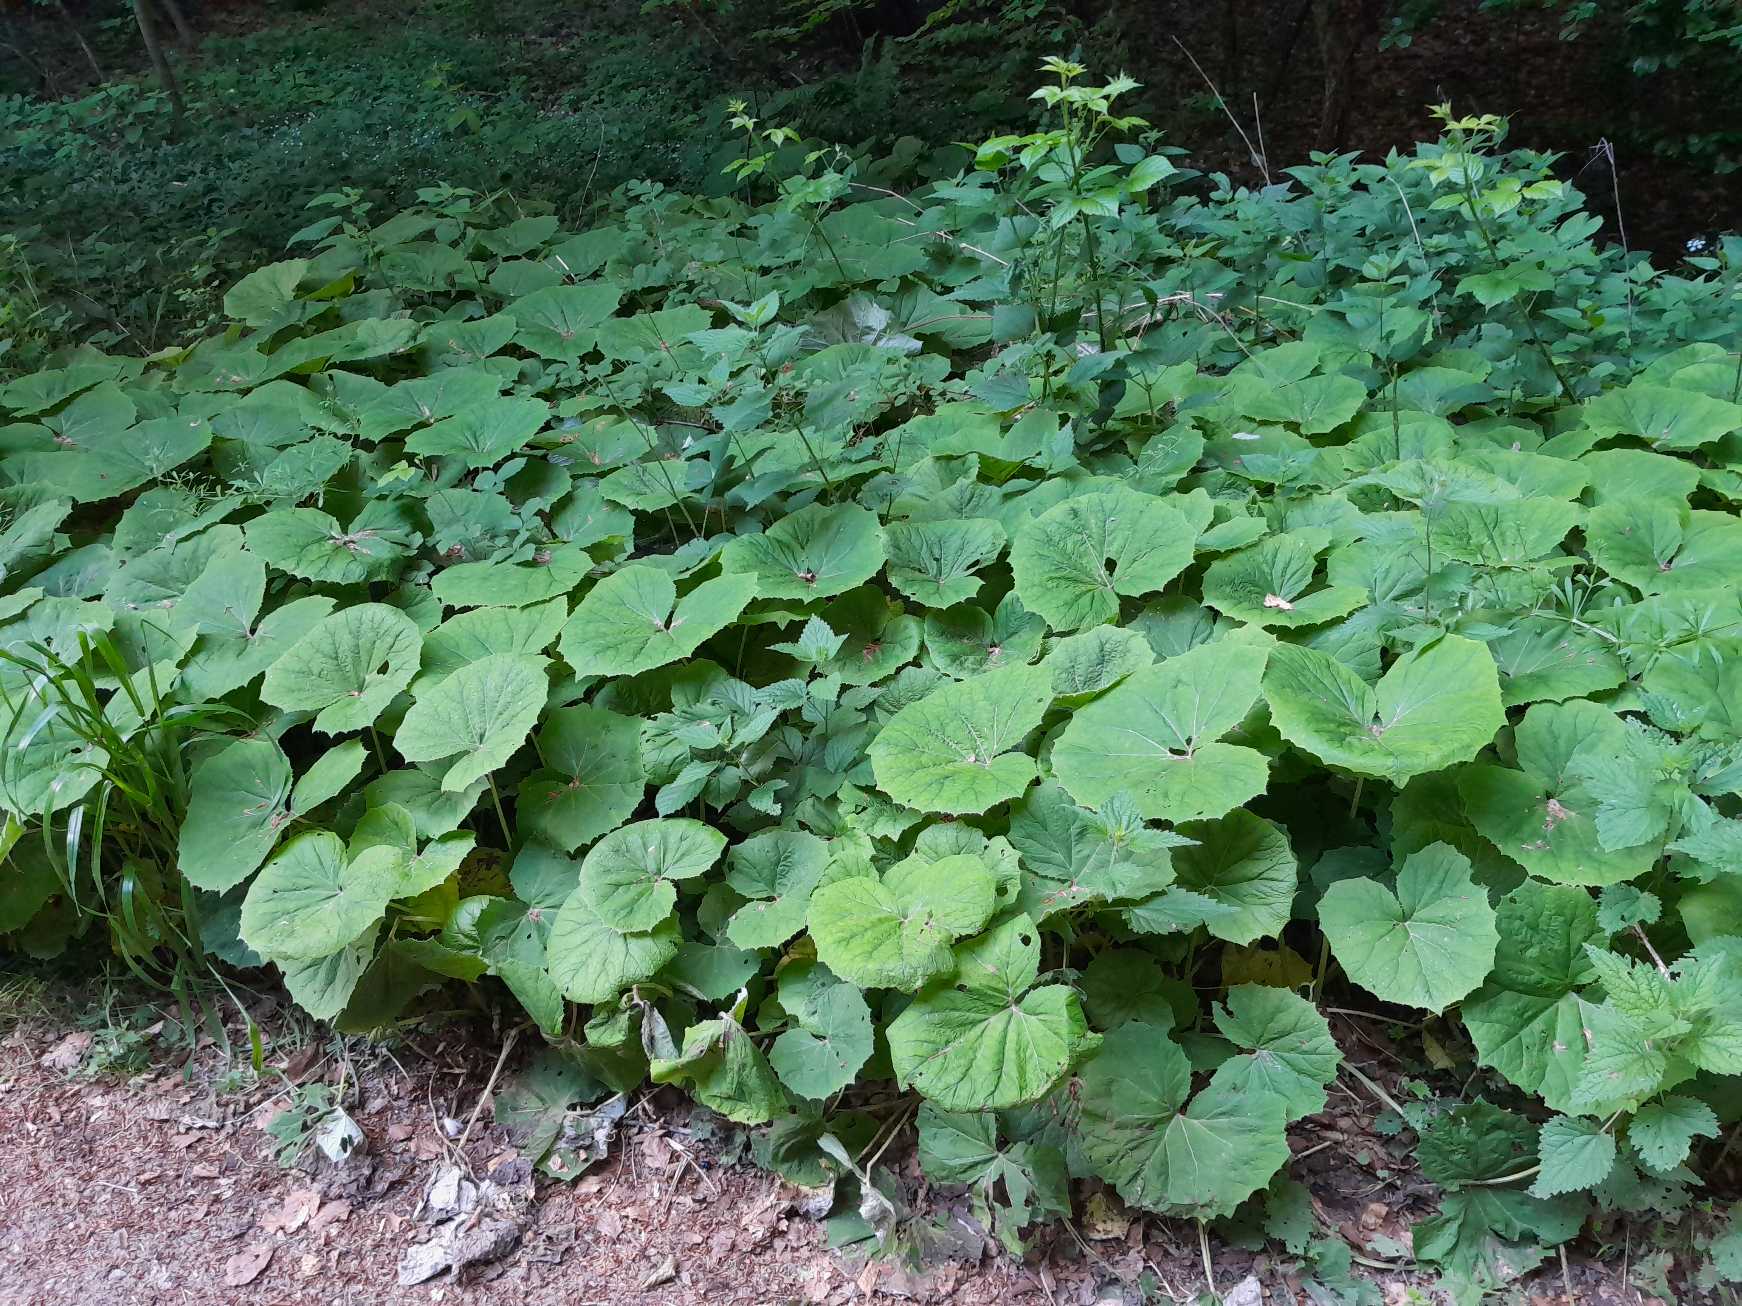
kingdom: Plantae
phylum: Tracheophyta
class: Magnoliopsida
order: Asterales
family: Asteraceae
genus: Petasites
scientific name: Petasites albus
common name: Hvid hestehov
